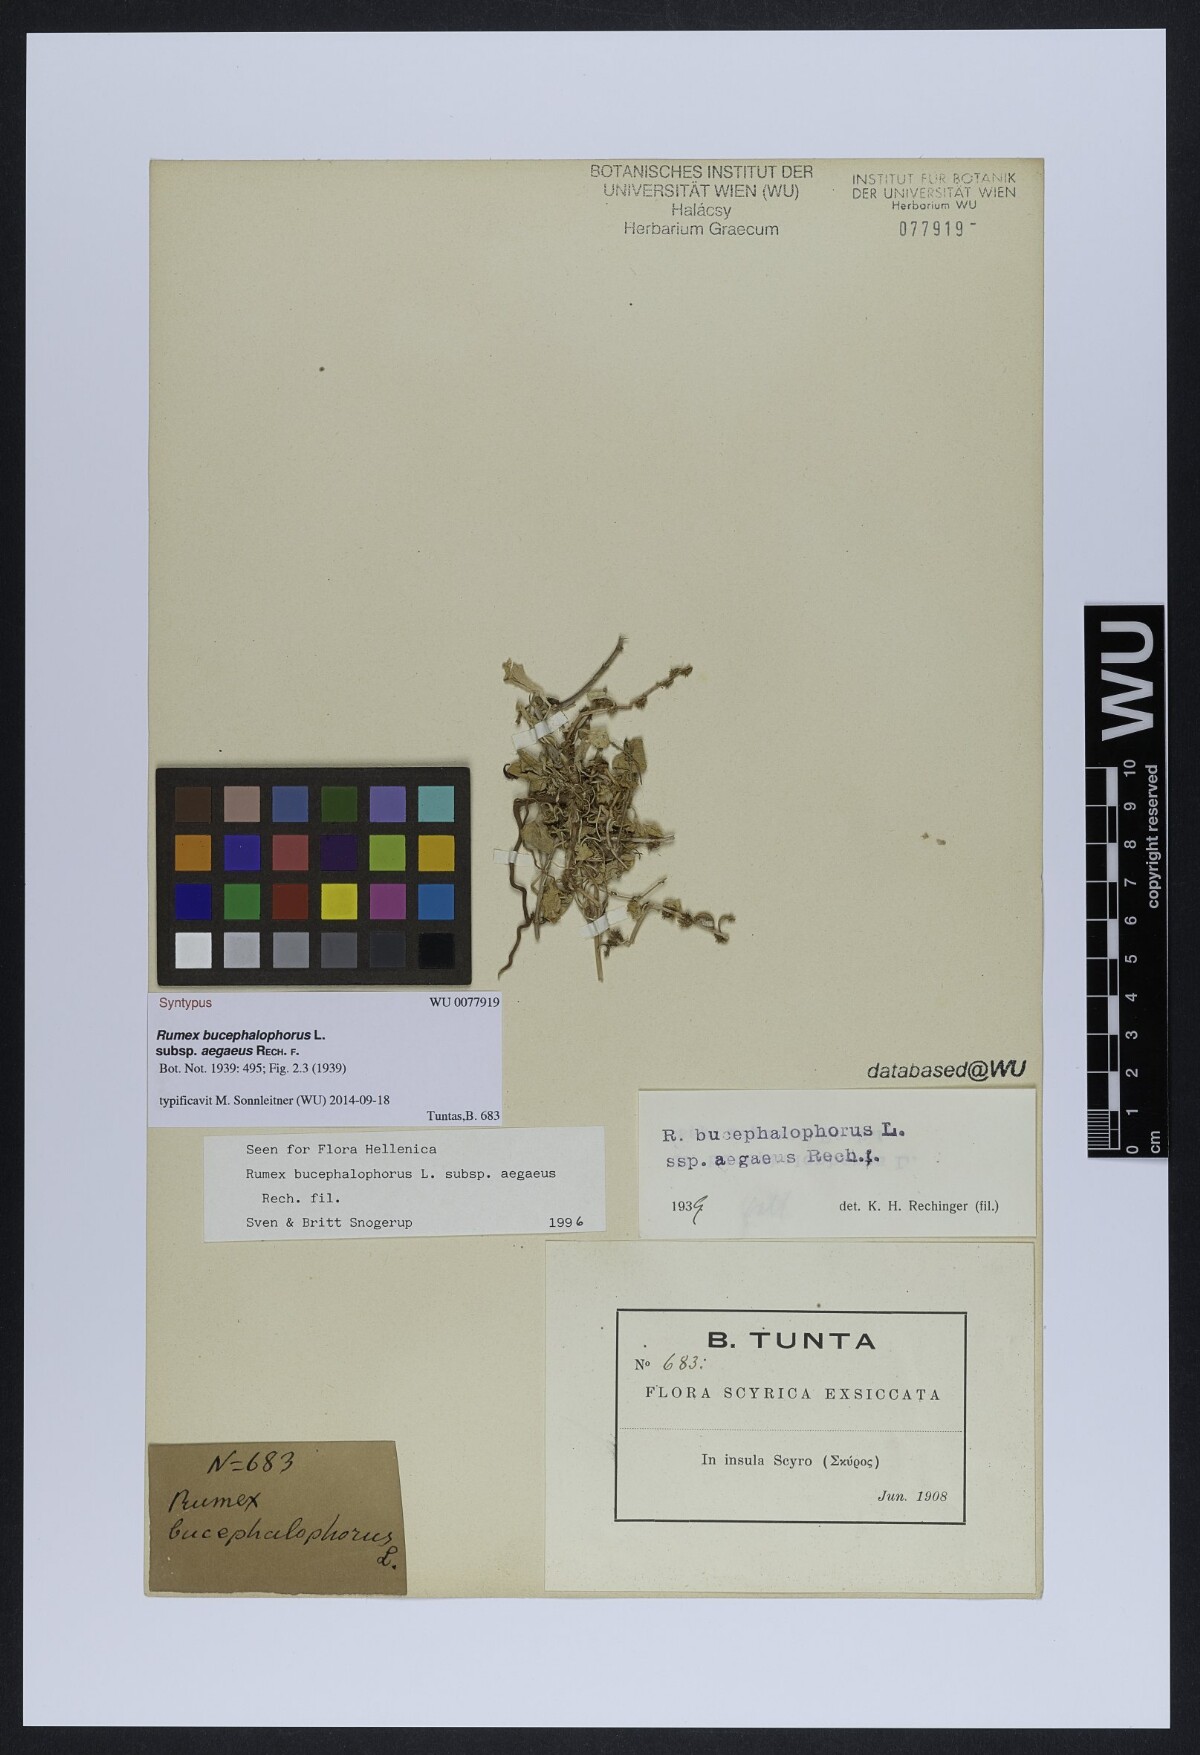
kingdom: Plantae
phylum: Tracheophyta
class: Magnoliopsida
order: Caryophyllales
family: Polygonaceae
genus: Rumex
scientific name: Rumex bucephalophorus
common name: Red dock
